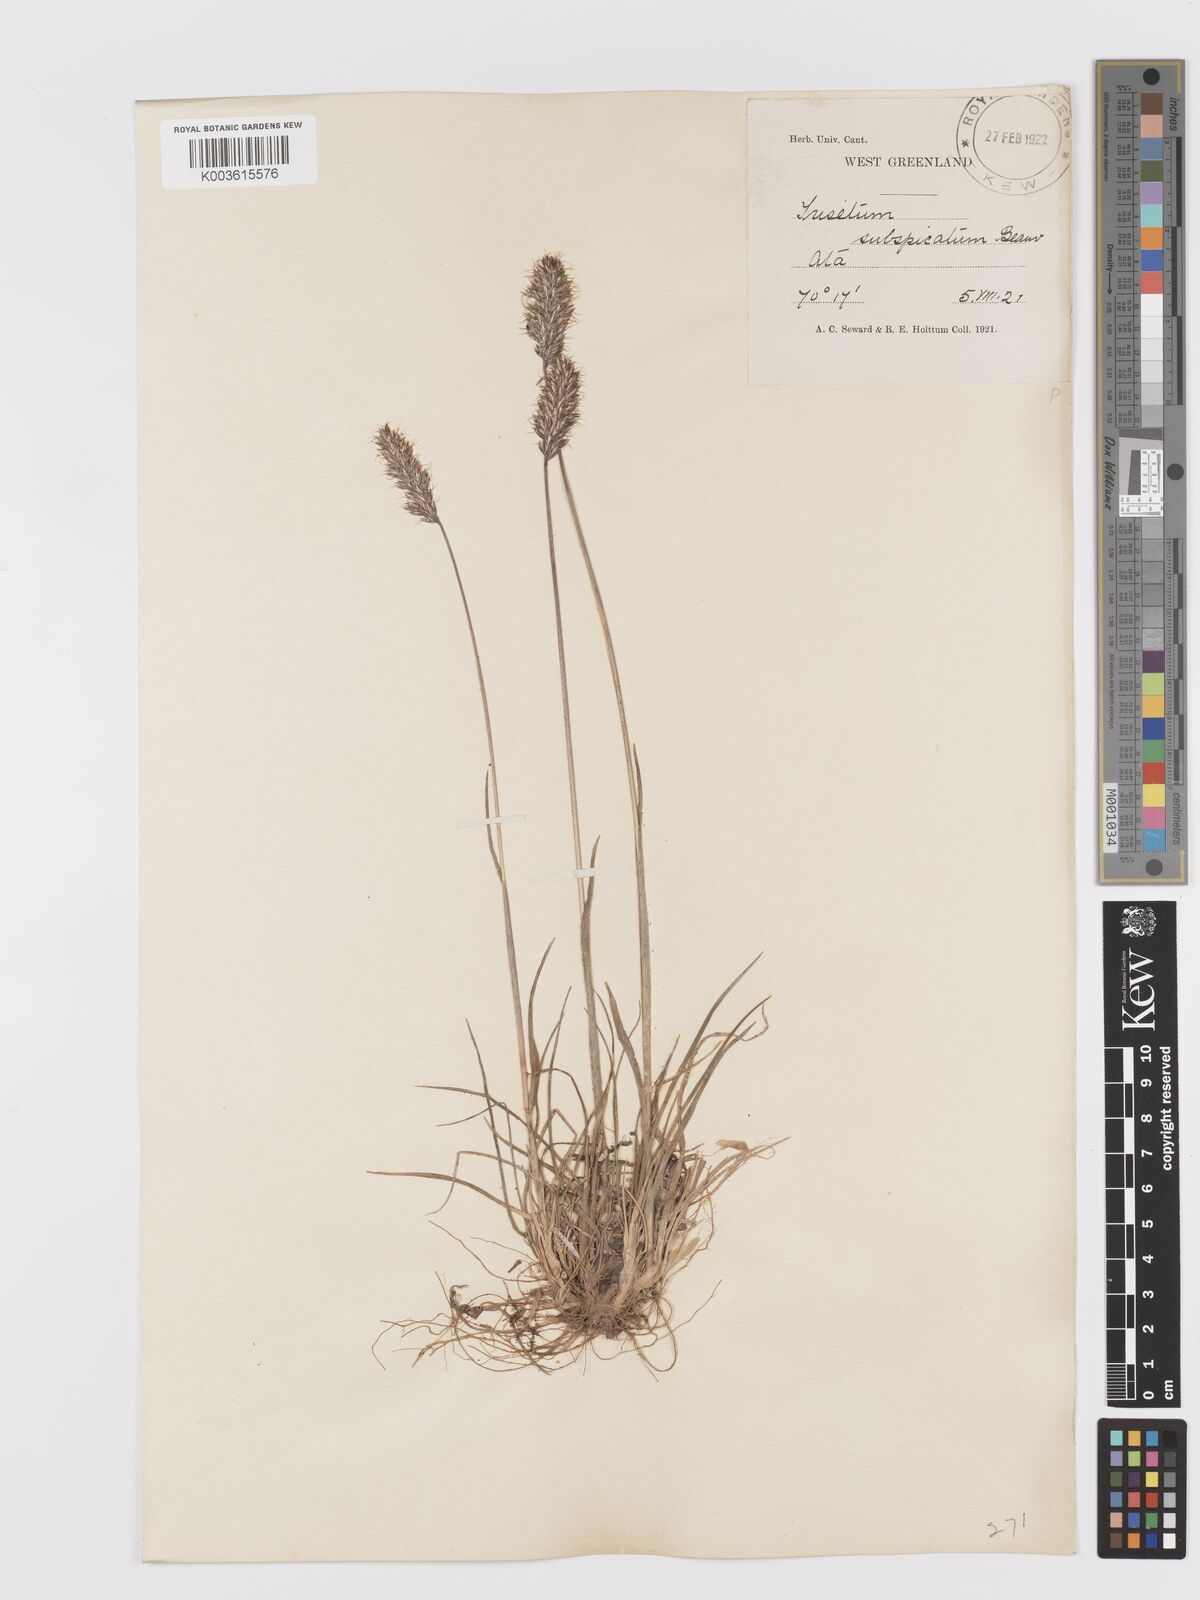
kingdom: Plantae
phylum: Tracheophyta
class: Liliopsida
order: Poales
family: Poaceae
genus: Koeleria
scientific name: Koeleria spicata
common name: Mountain trisetum
